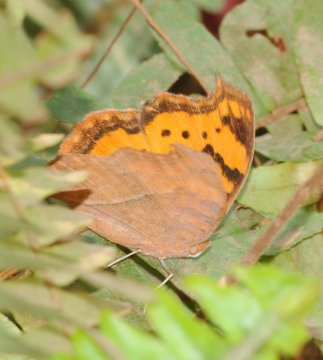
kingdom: Animalia
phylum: Arthropoda
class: Insecta
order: Lepidoptera
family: Nymphalidae
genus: Junonia
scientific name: Junonia antilope
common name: Darker Commodore
